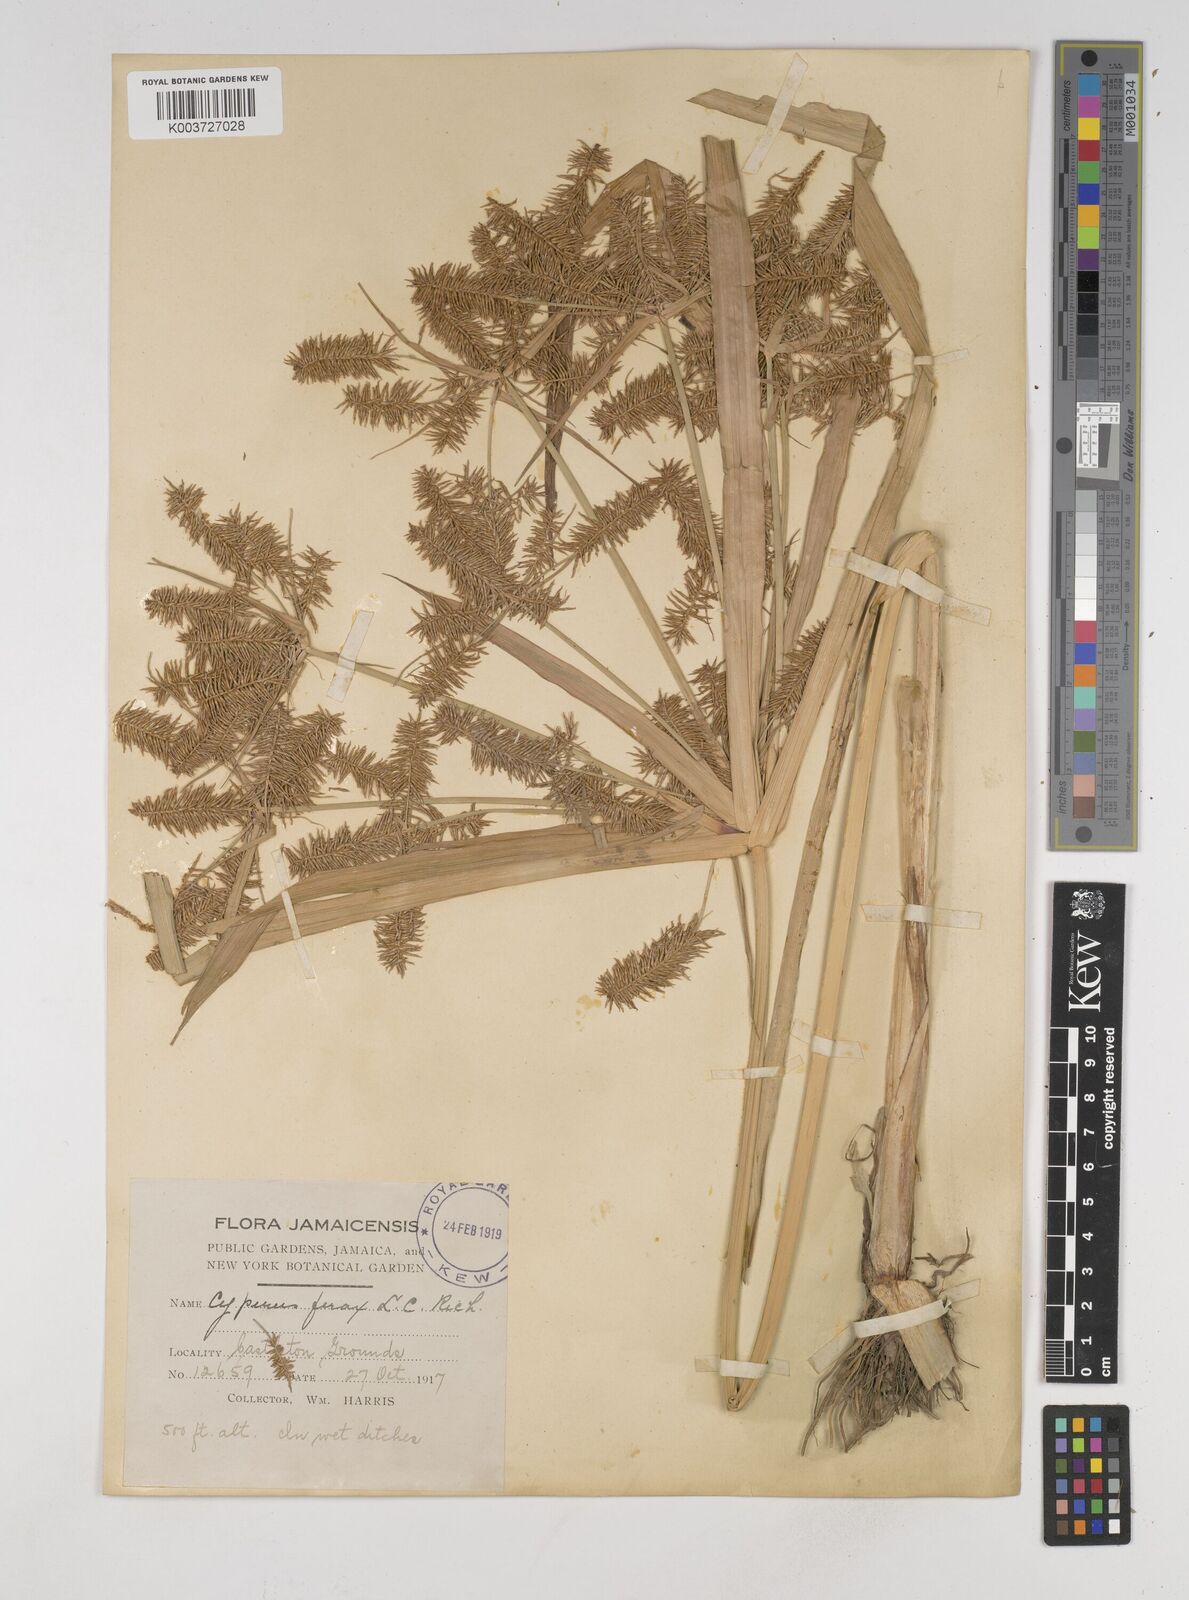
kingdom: Plantae
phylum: Tracheophyta
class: Liliopsida
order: Poales
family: Cyperaceae
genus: Cyperus
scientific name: Cyperus odoratus
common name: Fragrant flatsedge
